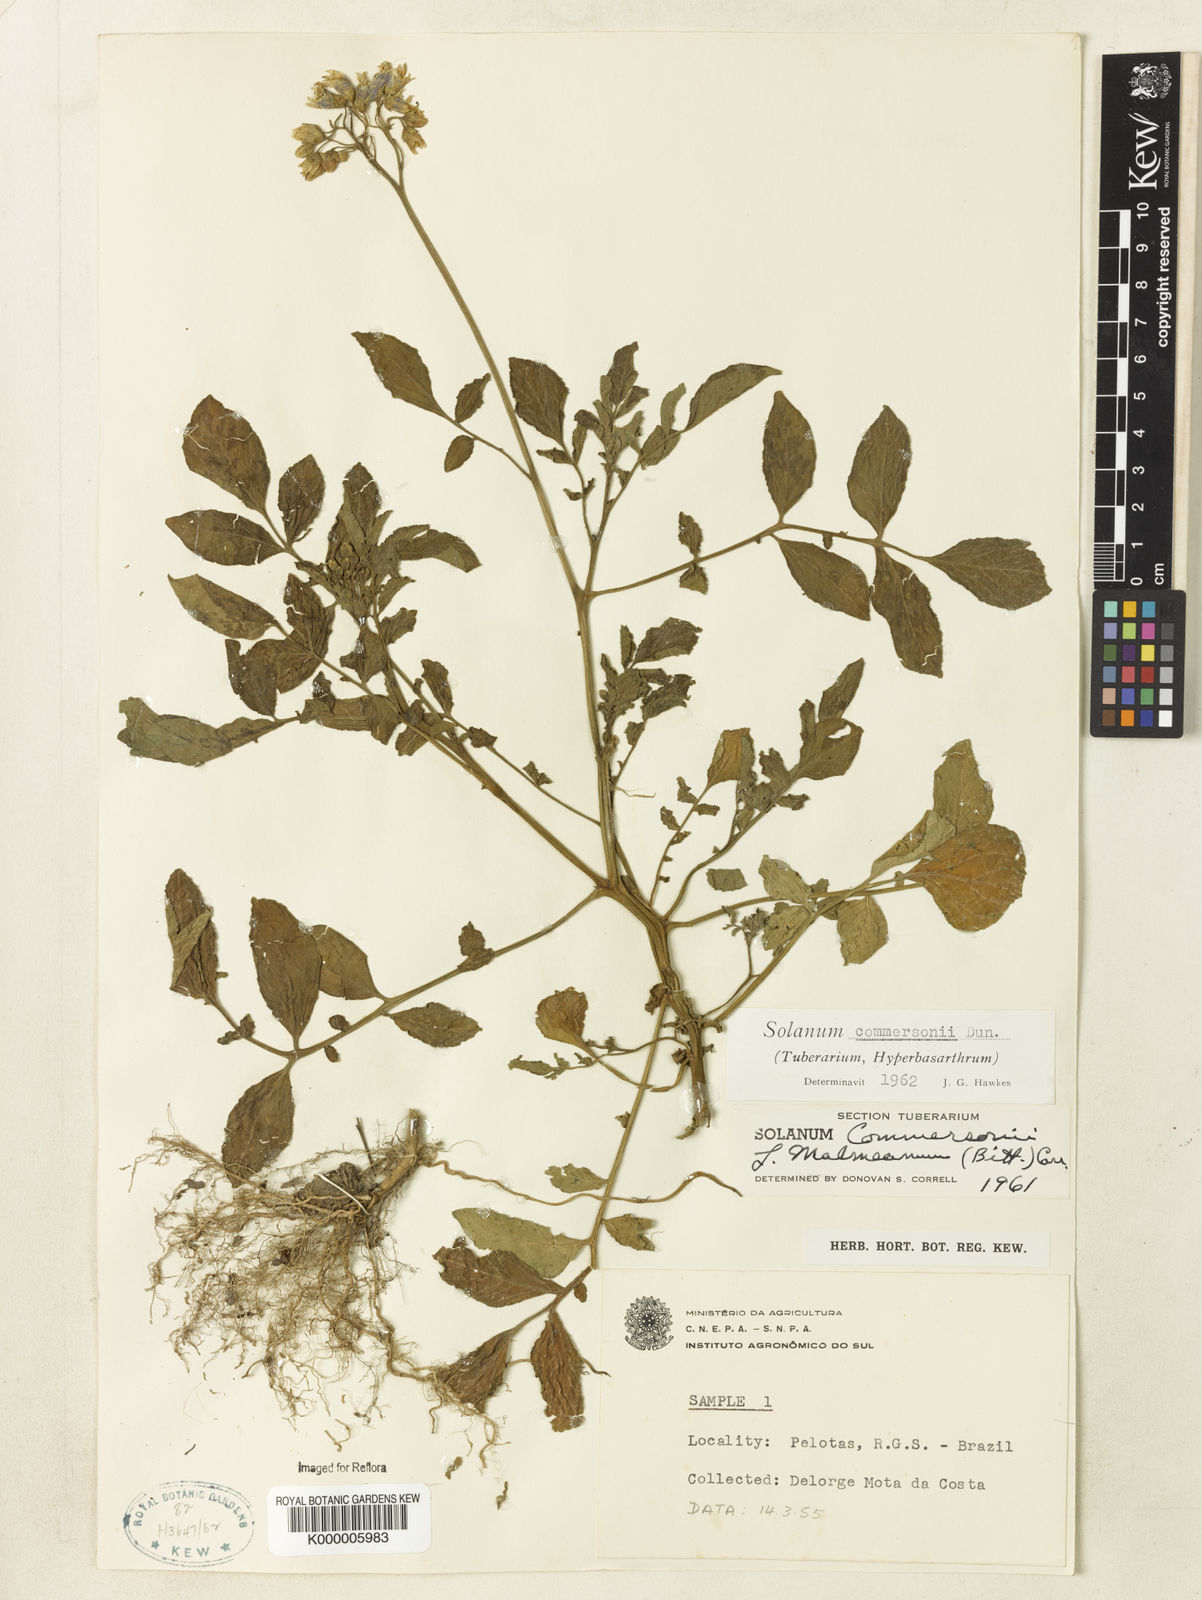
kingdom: Plantae
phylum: Tracheophyta
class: Magnoliopsida
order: Solanales
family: Solanaceae
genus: Solanum
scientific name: Solanum commersonii
